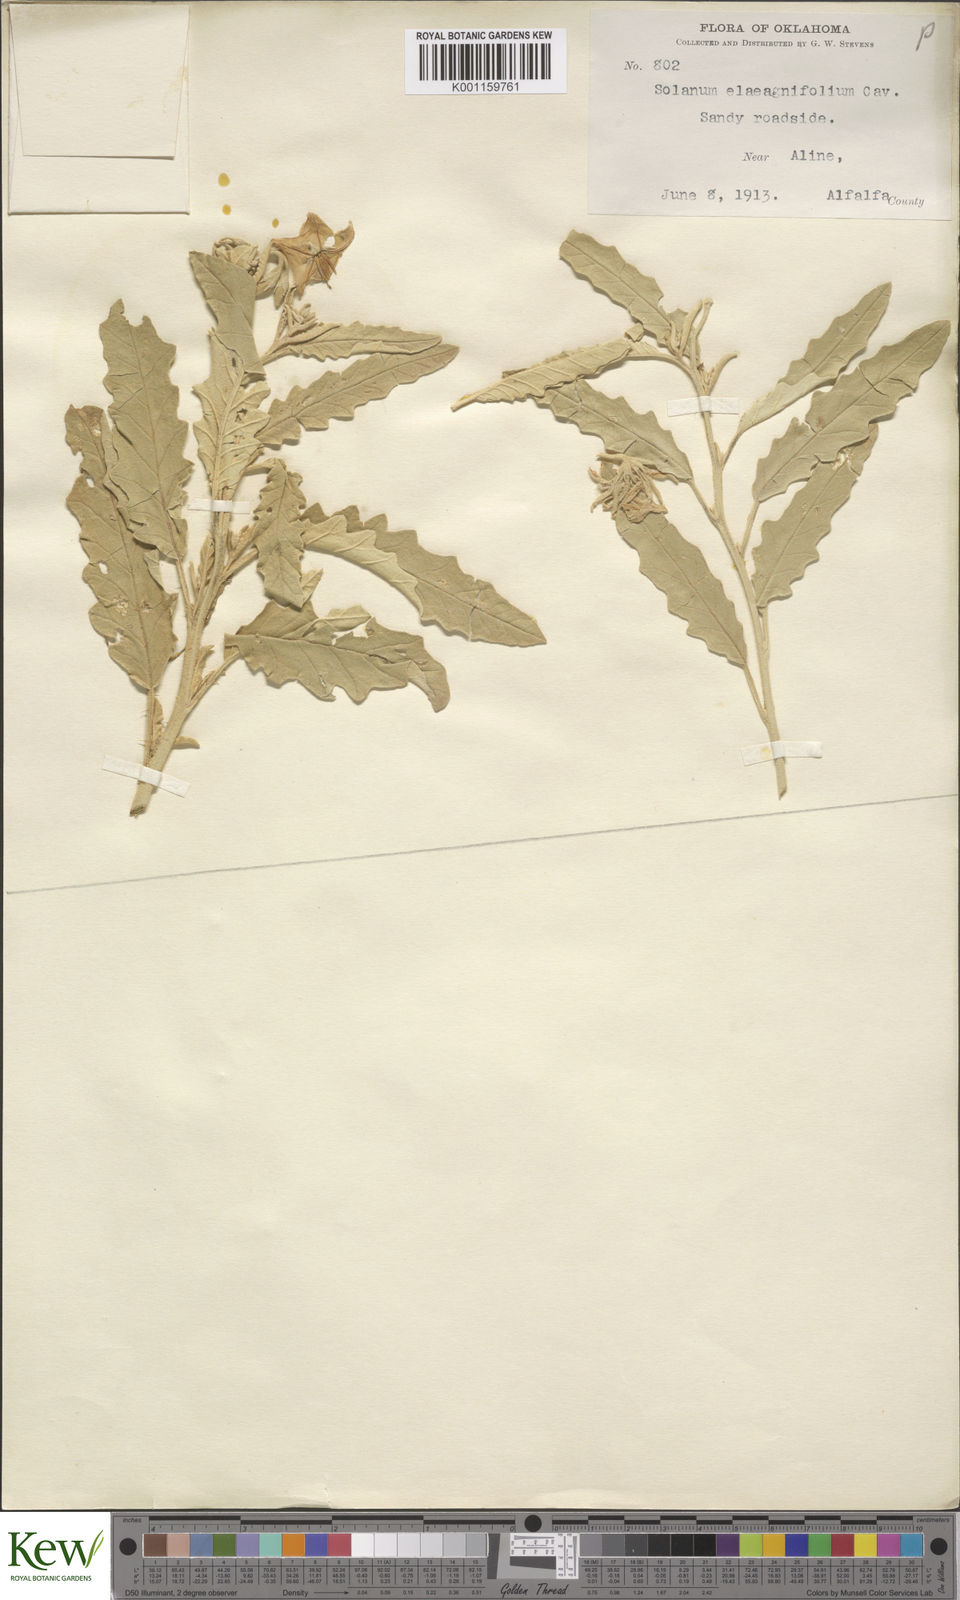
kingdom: Plantae
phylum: Tracheophyta
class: Magnoliopsida
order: Solanales
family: Solanaceae
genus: Solanum
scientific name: Solanum
